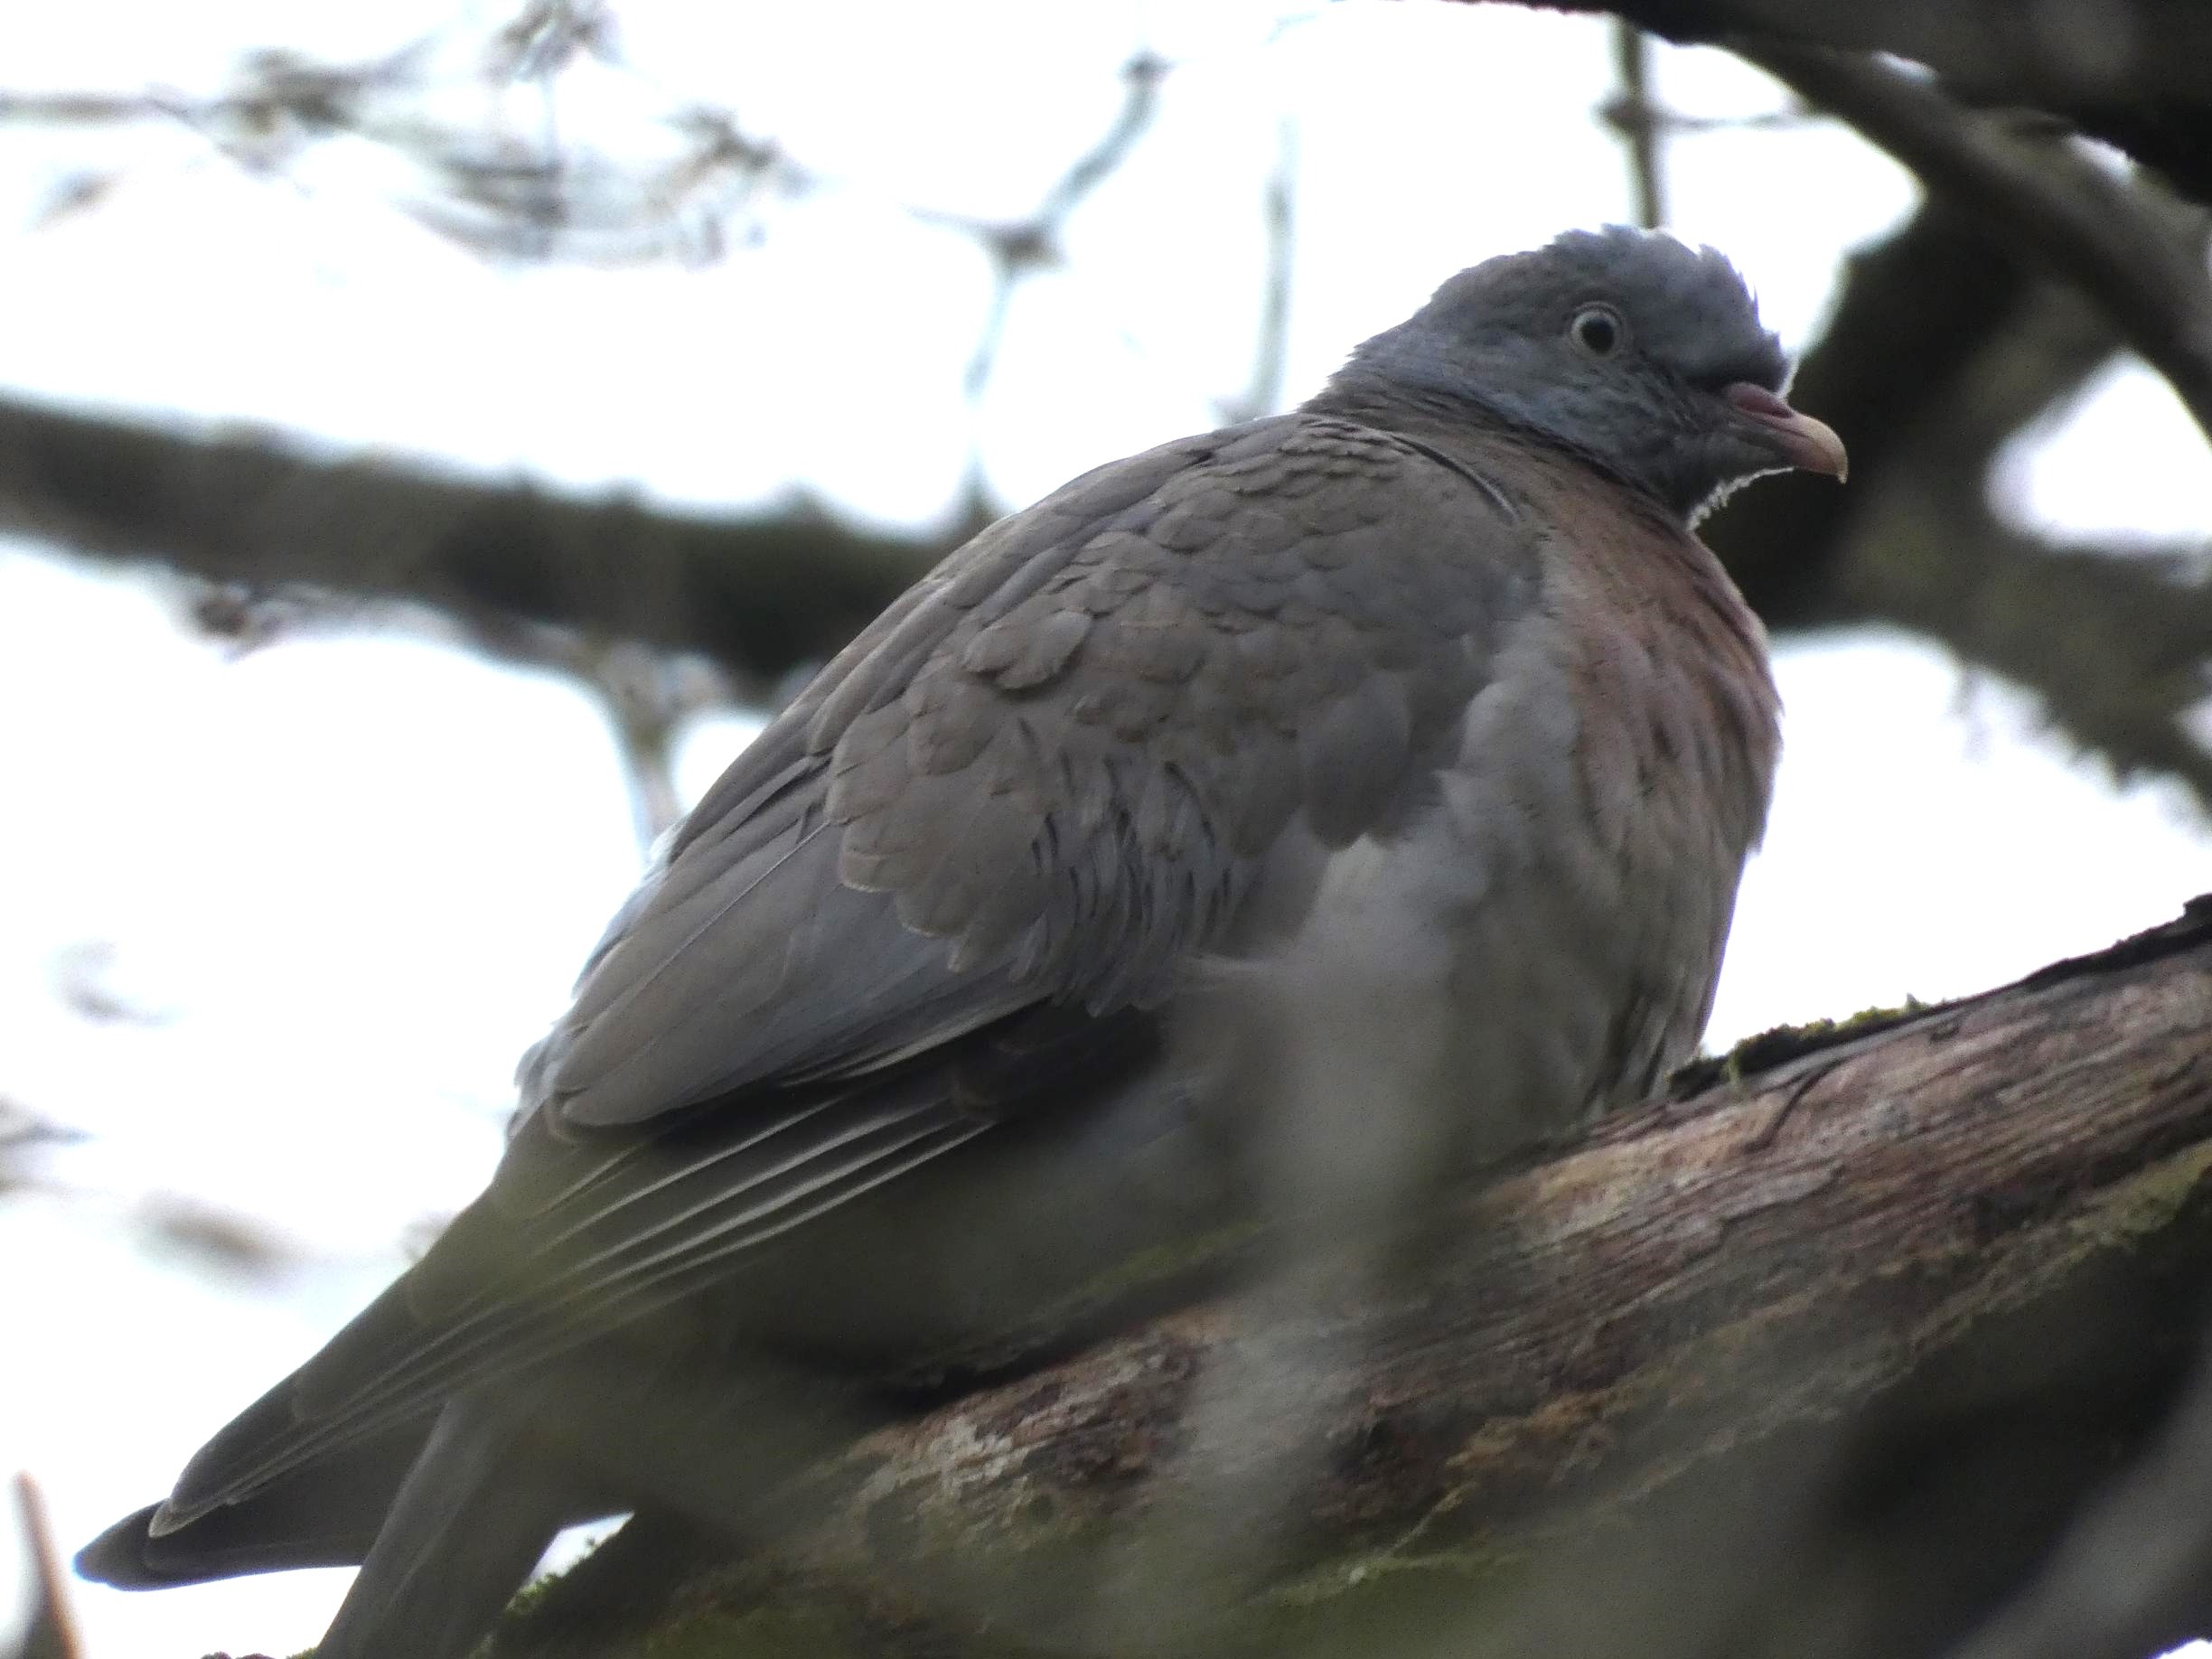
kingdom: Animalia
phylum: Chordata
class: Aves
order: Columbiformes
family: Columbidae
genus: Columba
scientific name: Columba palumbus
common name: Ringdue
